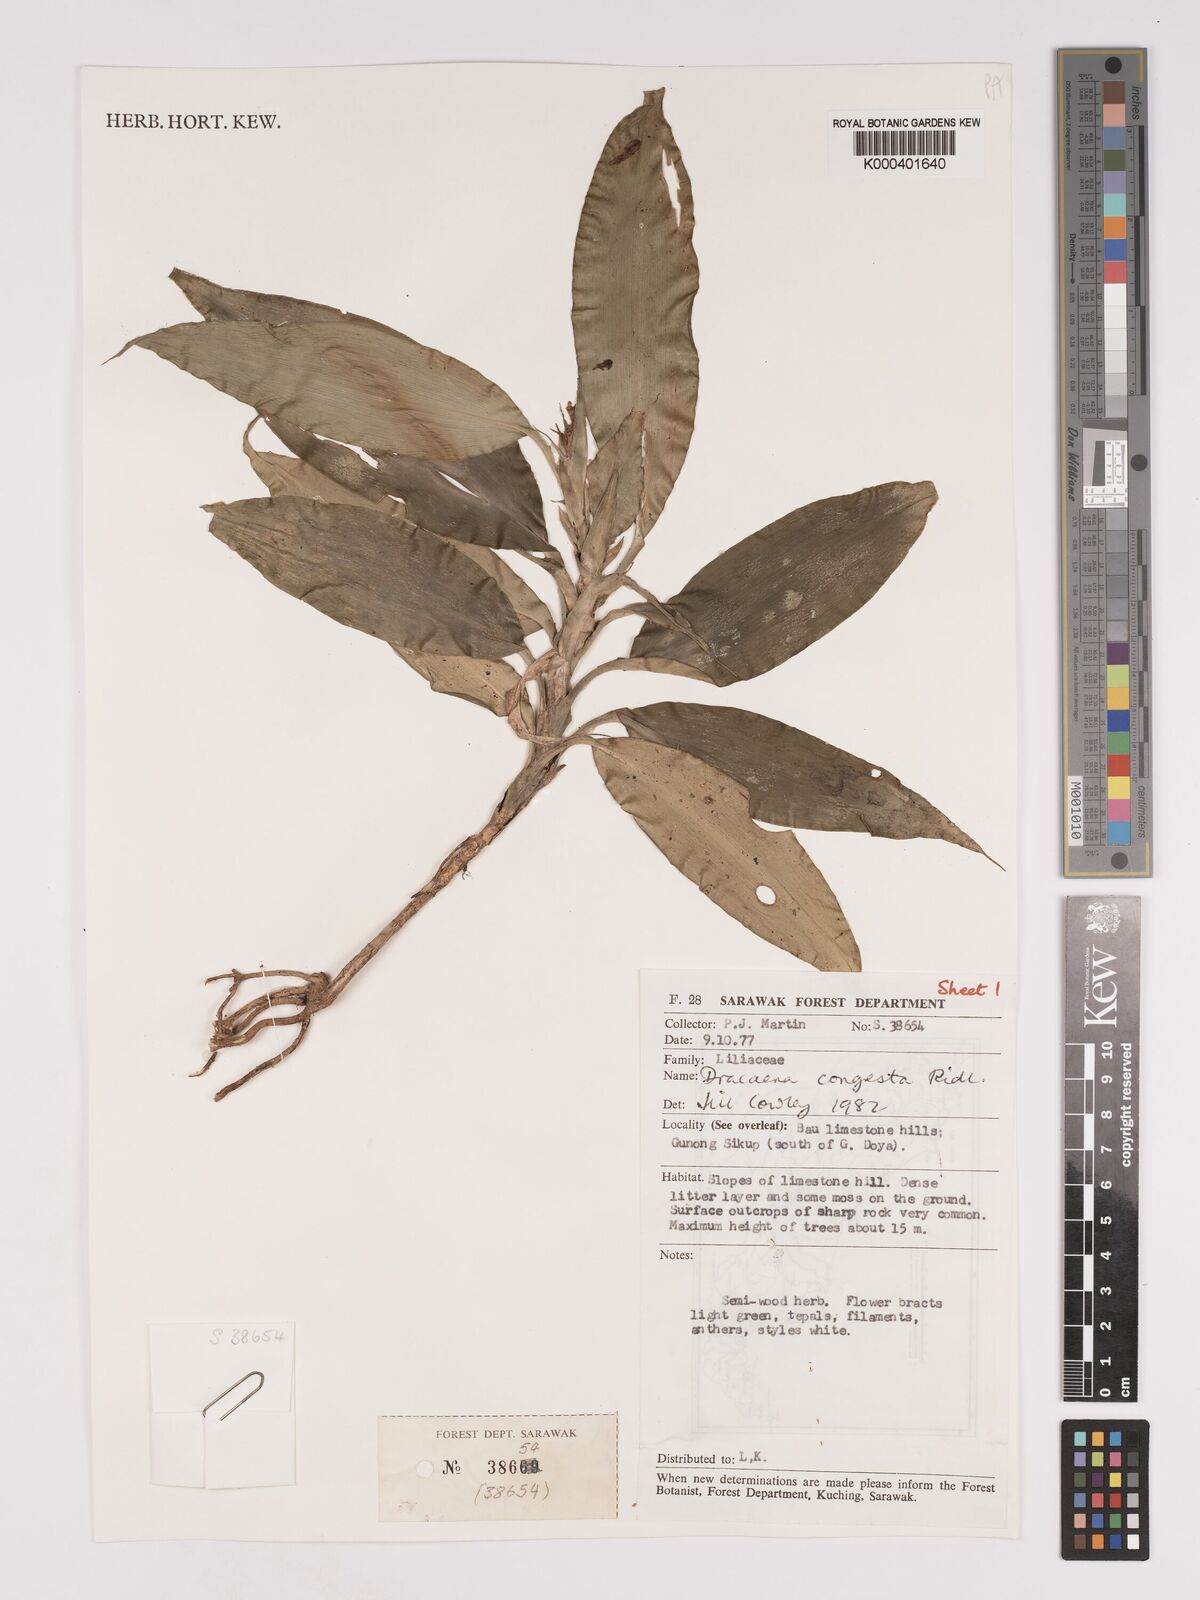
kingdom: Plantae
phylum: Tracheophyta
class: Liliopsida
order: Asparagales
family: Asparagaceae
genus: Dracaena
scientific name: Dracaena chiniana
